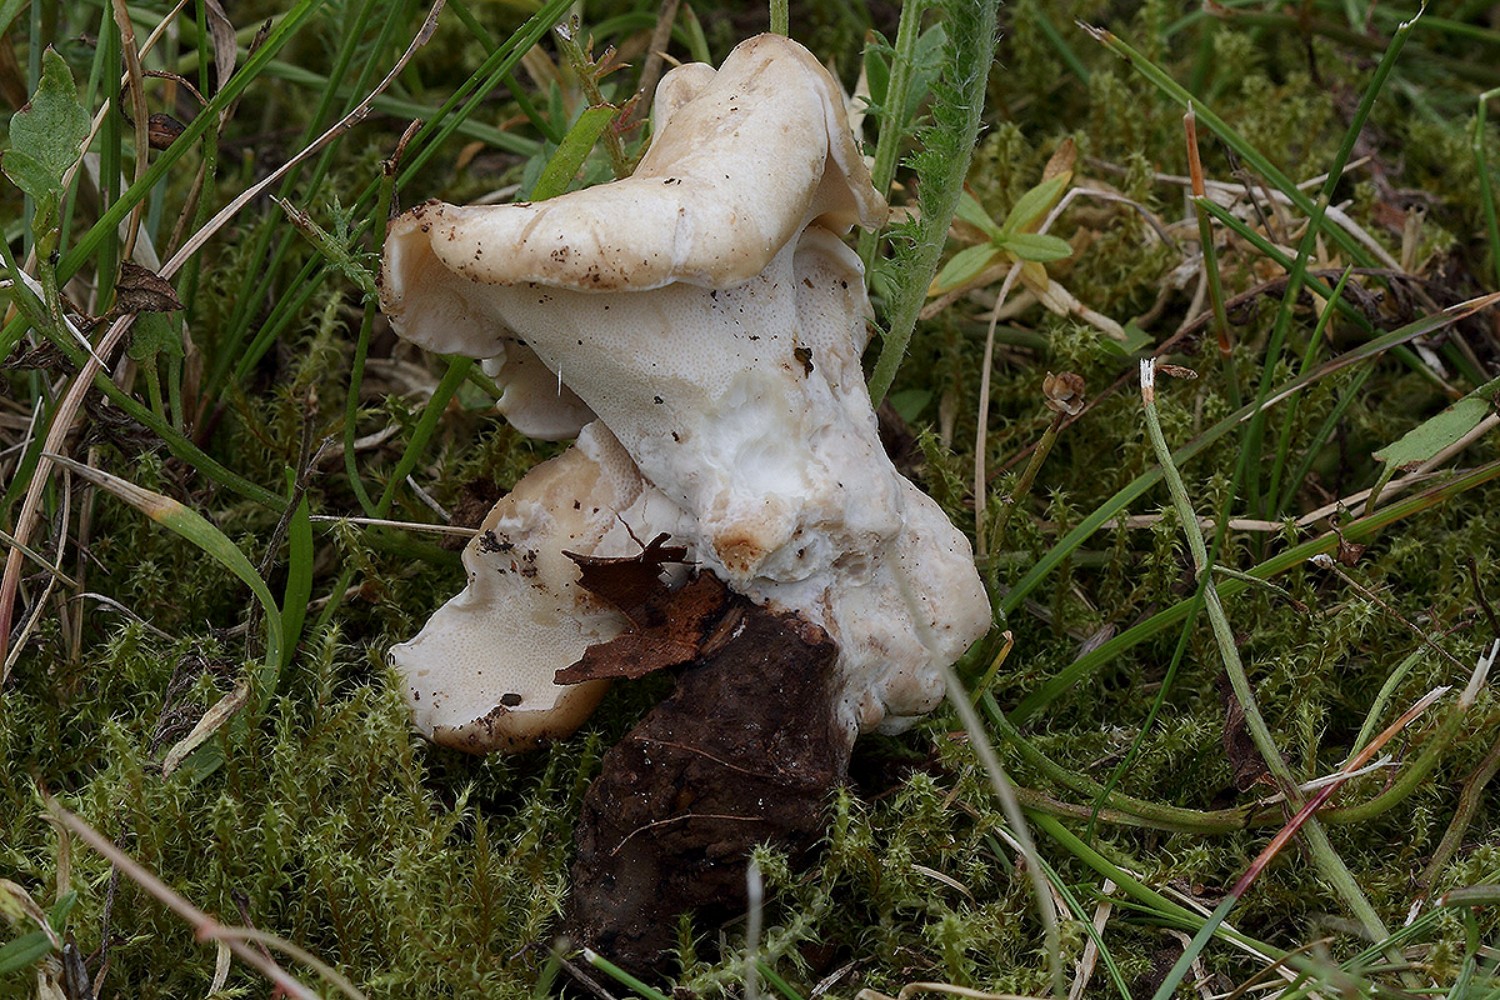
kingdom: Fungi
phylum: Basidiomycota
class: Agaricomycetes
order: Polyporales
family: Polyporaceae
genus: Picipes
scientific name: Picipes melanopus
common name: sortfodet stilkporesvamp
